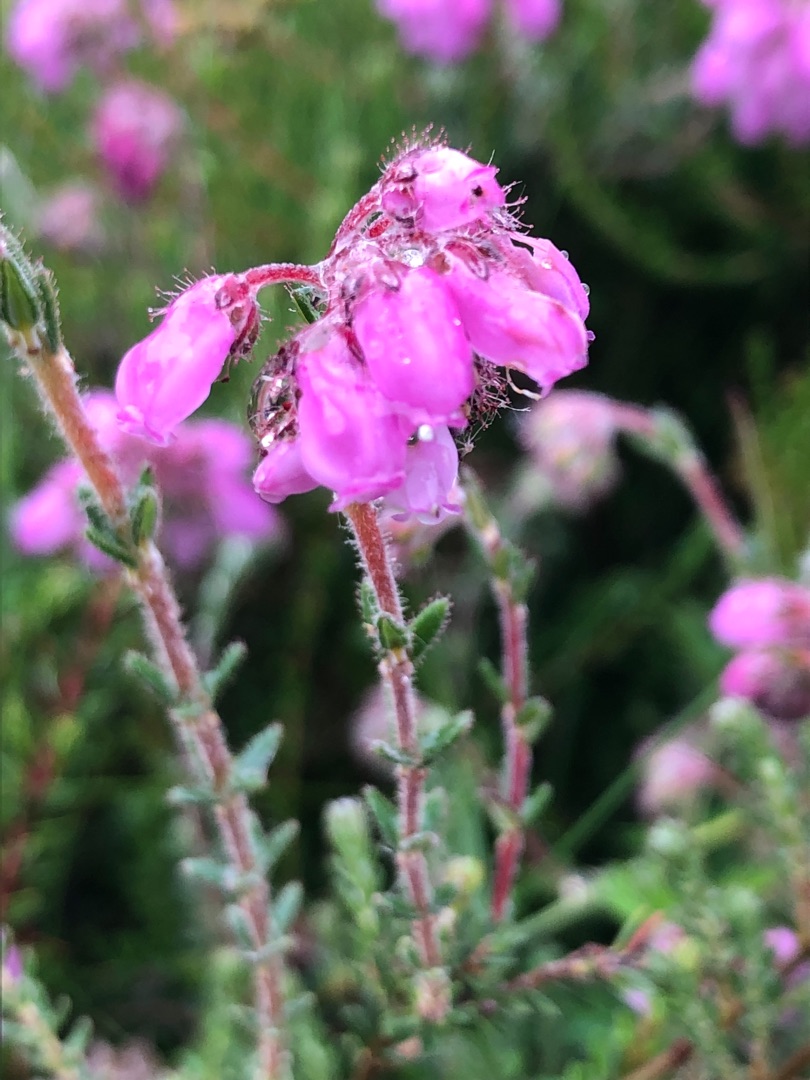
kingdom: Plantae
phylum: Tracheophyta
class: Magnoliopsida
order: Ericales
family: Ericaceae
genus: Erica
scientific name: Erica tetralix
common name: Klokkelyng
